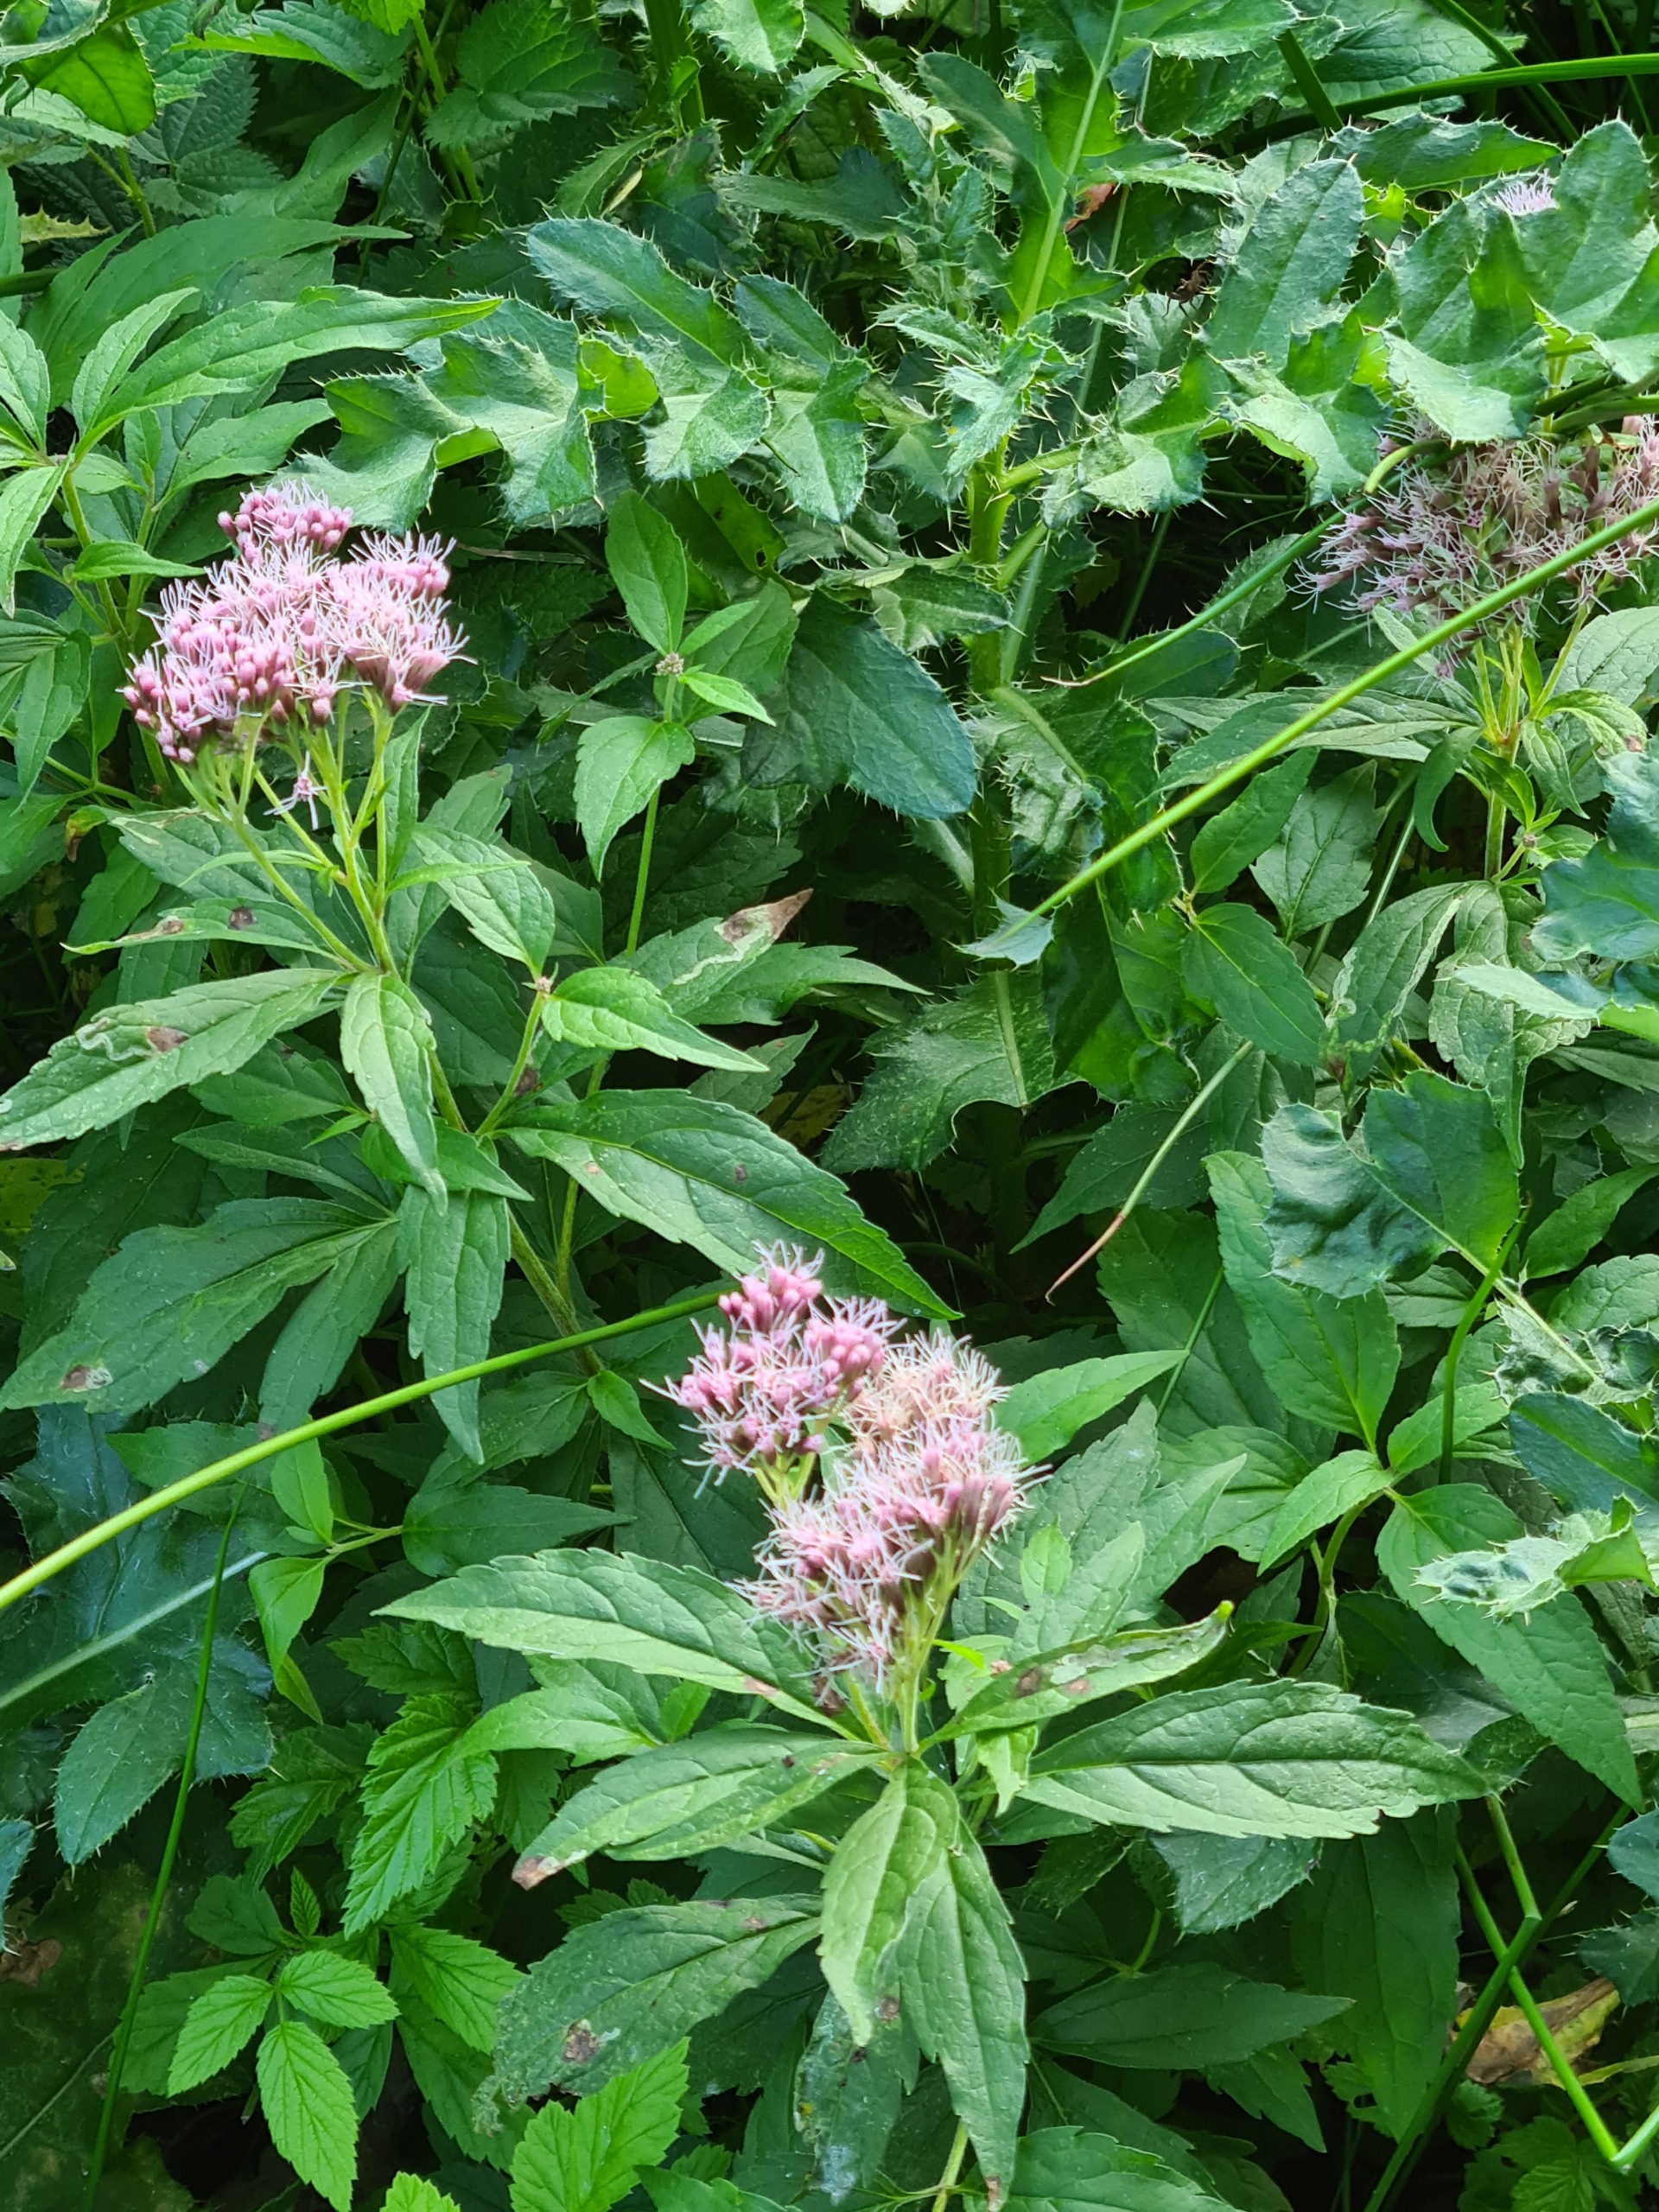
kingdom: Plantae
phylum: Tracheophyta
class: Magnoliopsida
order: Asterales
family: Asteraceae
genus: Eupatorium
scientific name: Eupatorium cannabinum
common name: Hjortetrøst
